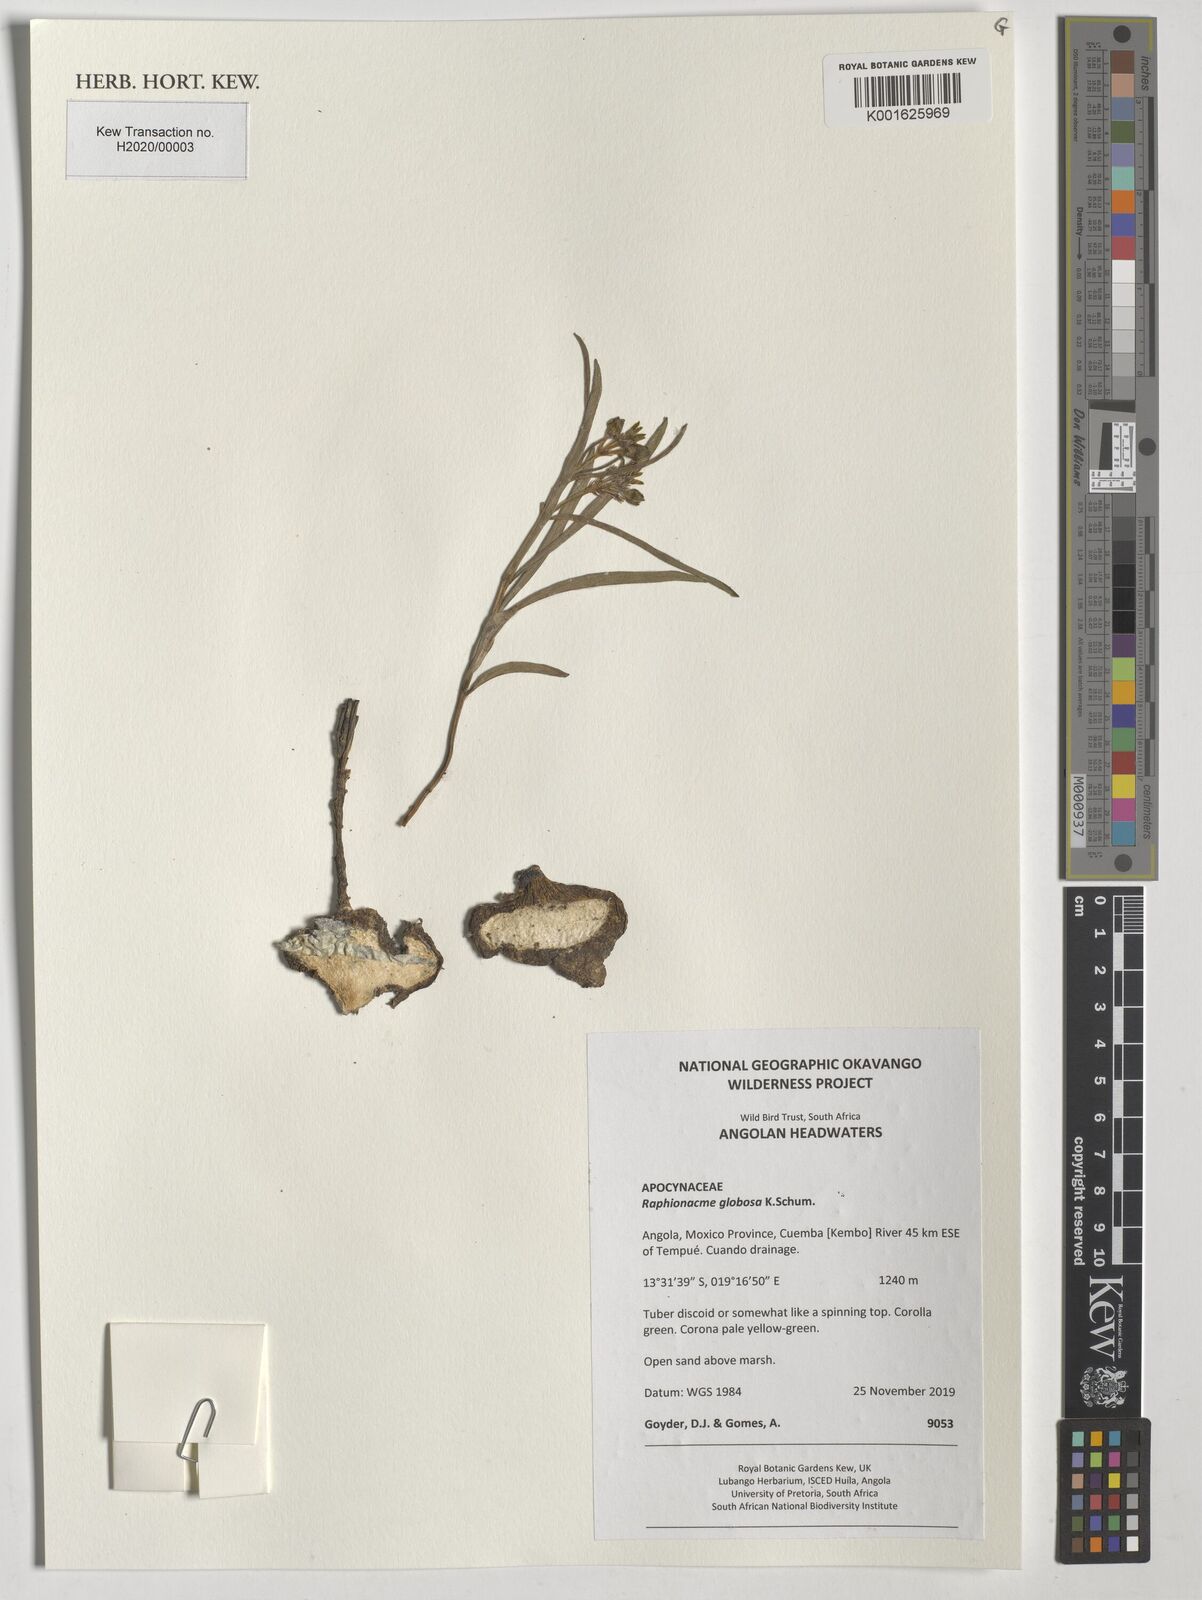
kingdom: Plantae
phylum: Tracheophyta
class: Magnoliopsida
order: Gentianales
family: Apocynaceae
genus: Raphionacme
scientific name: Raphionacme globosa
